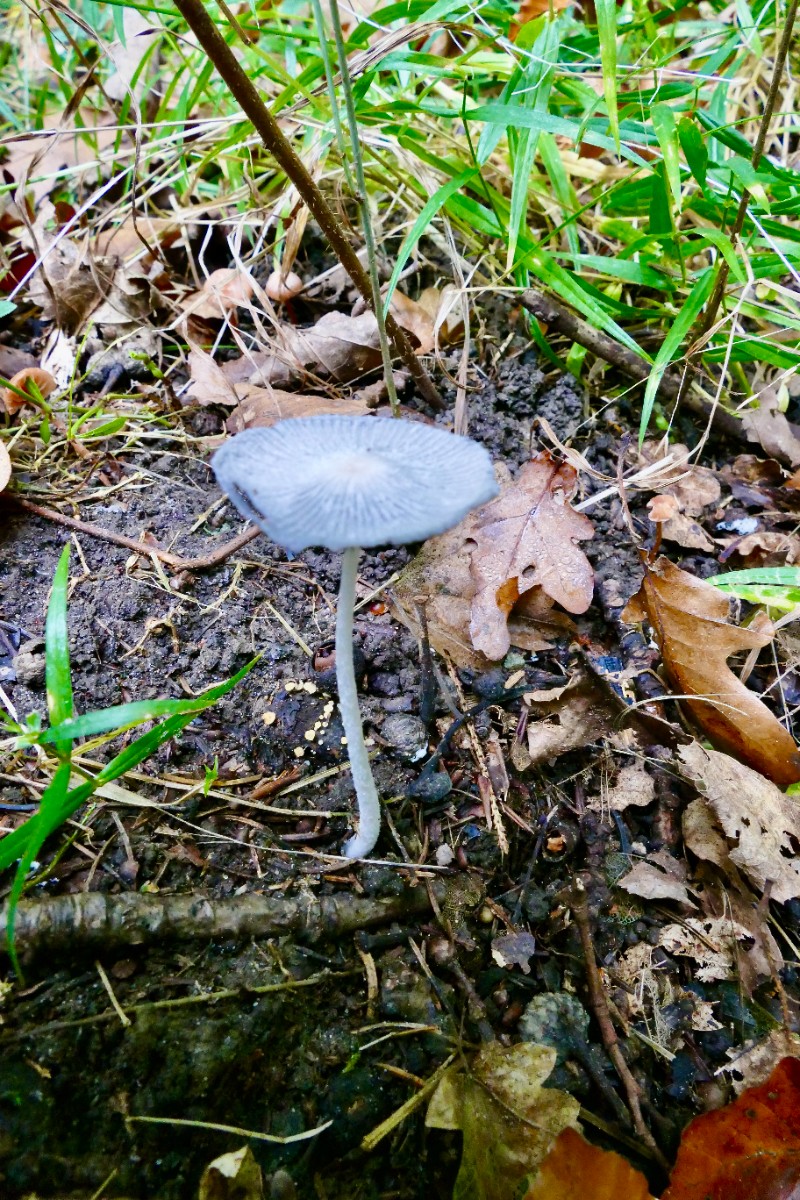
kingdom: Fungi
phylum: Basidiomycota
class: Agaricomycetes
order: Agaricales
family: Psathyrellaceae
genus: Coprinopsis
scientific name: Coprinopsis lagopus
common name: dunstokket blækhat
